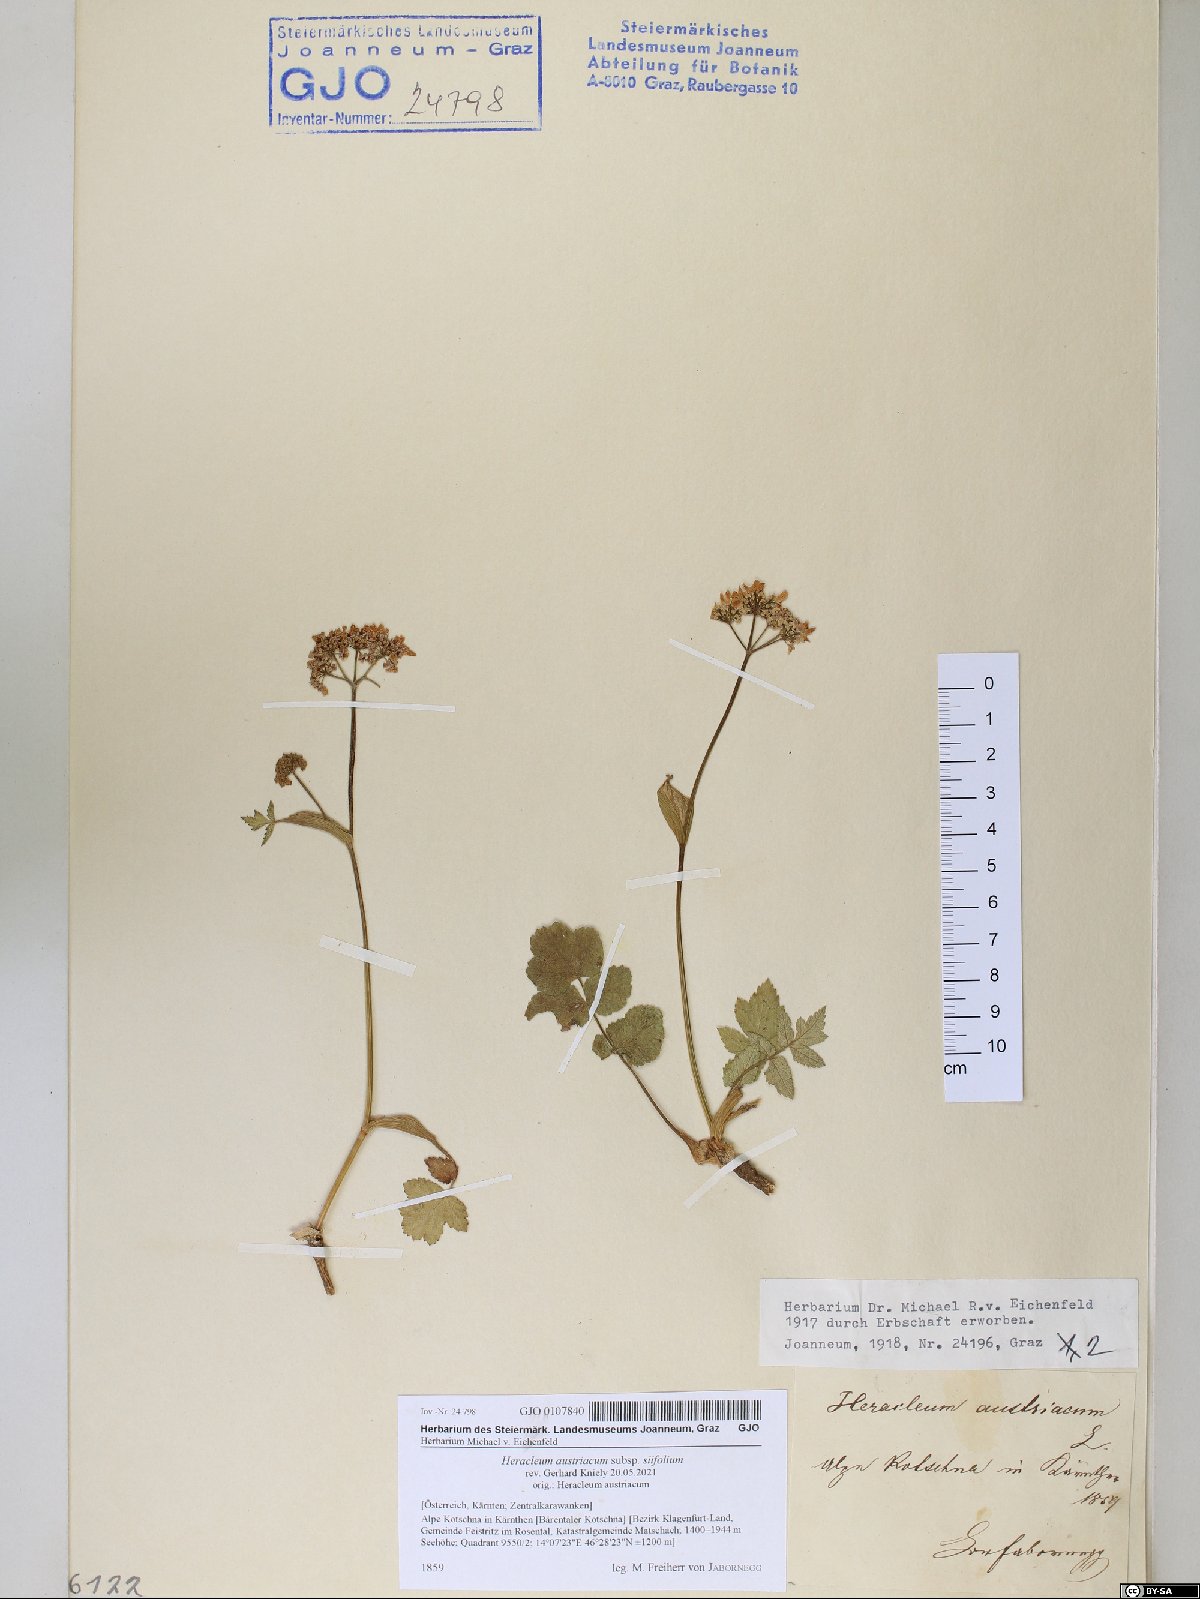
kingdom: Plantae
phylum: Tracheophyta
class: Magnoliopsida
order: Apiales
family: Apiaceae
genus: Heracleum
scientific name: Heracleum austriacum
